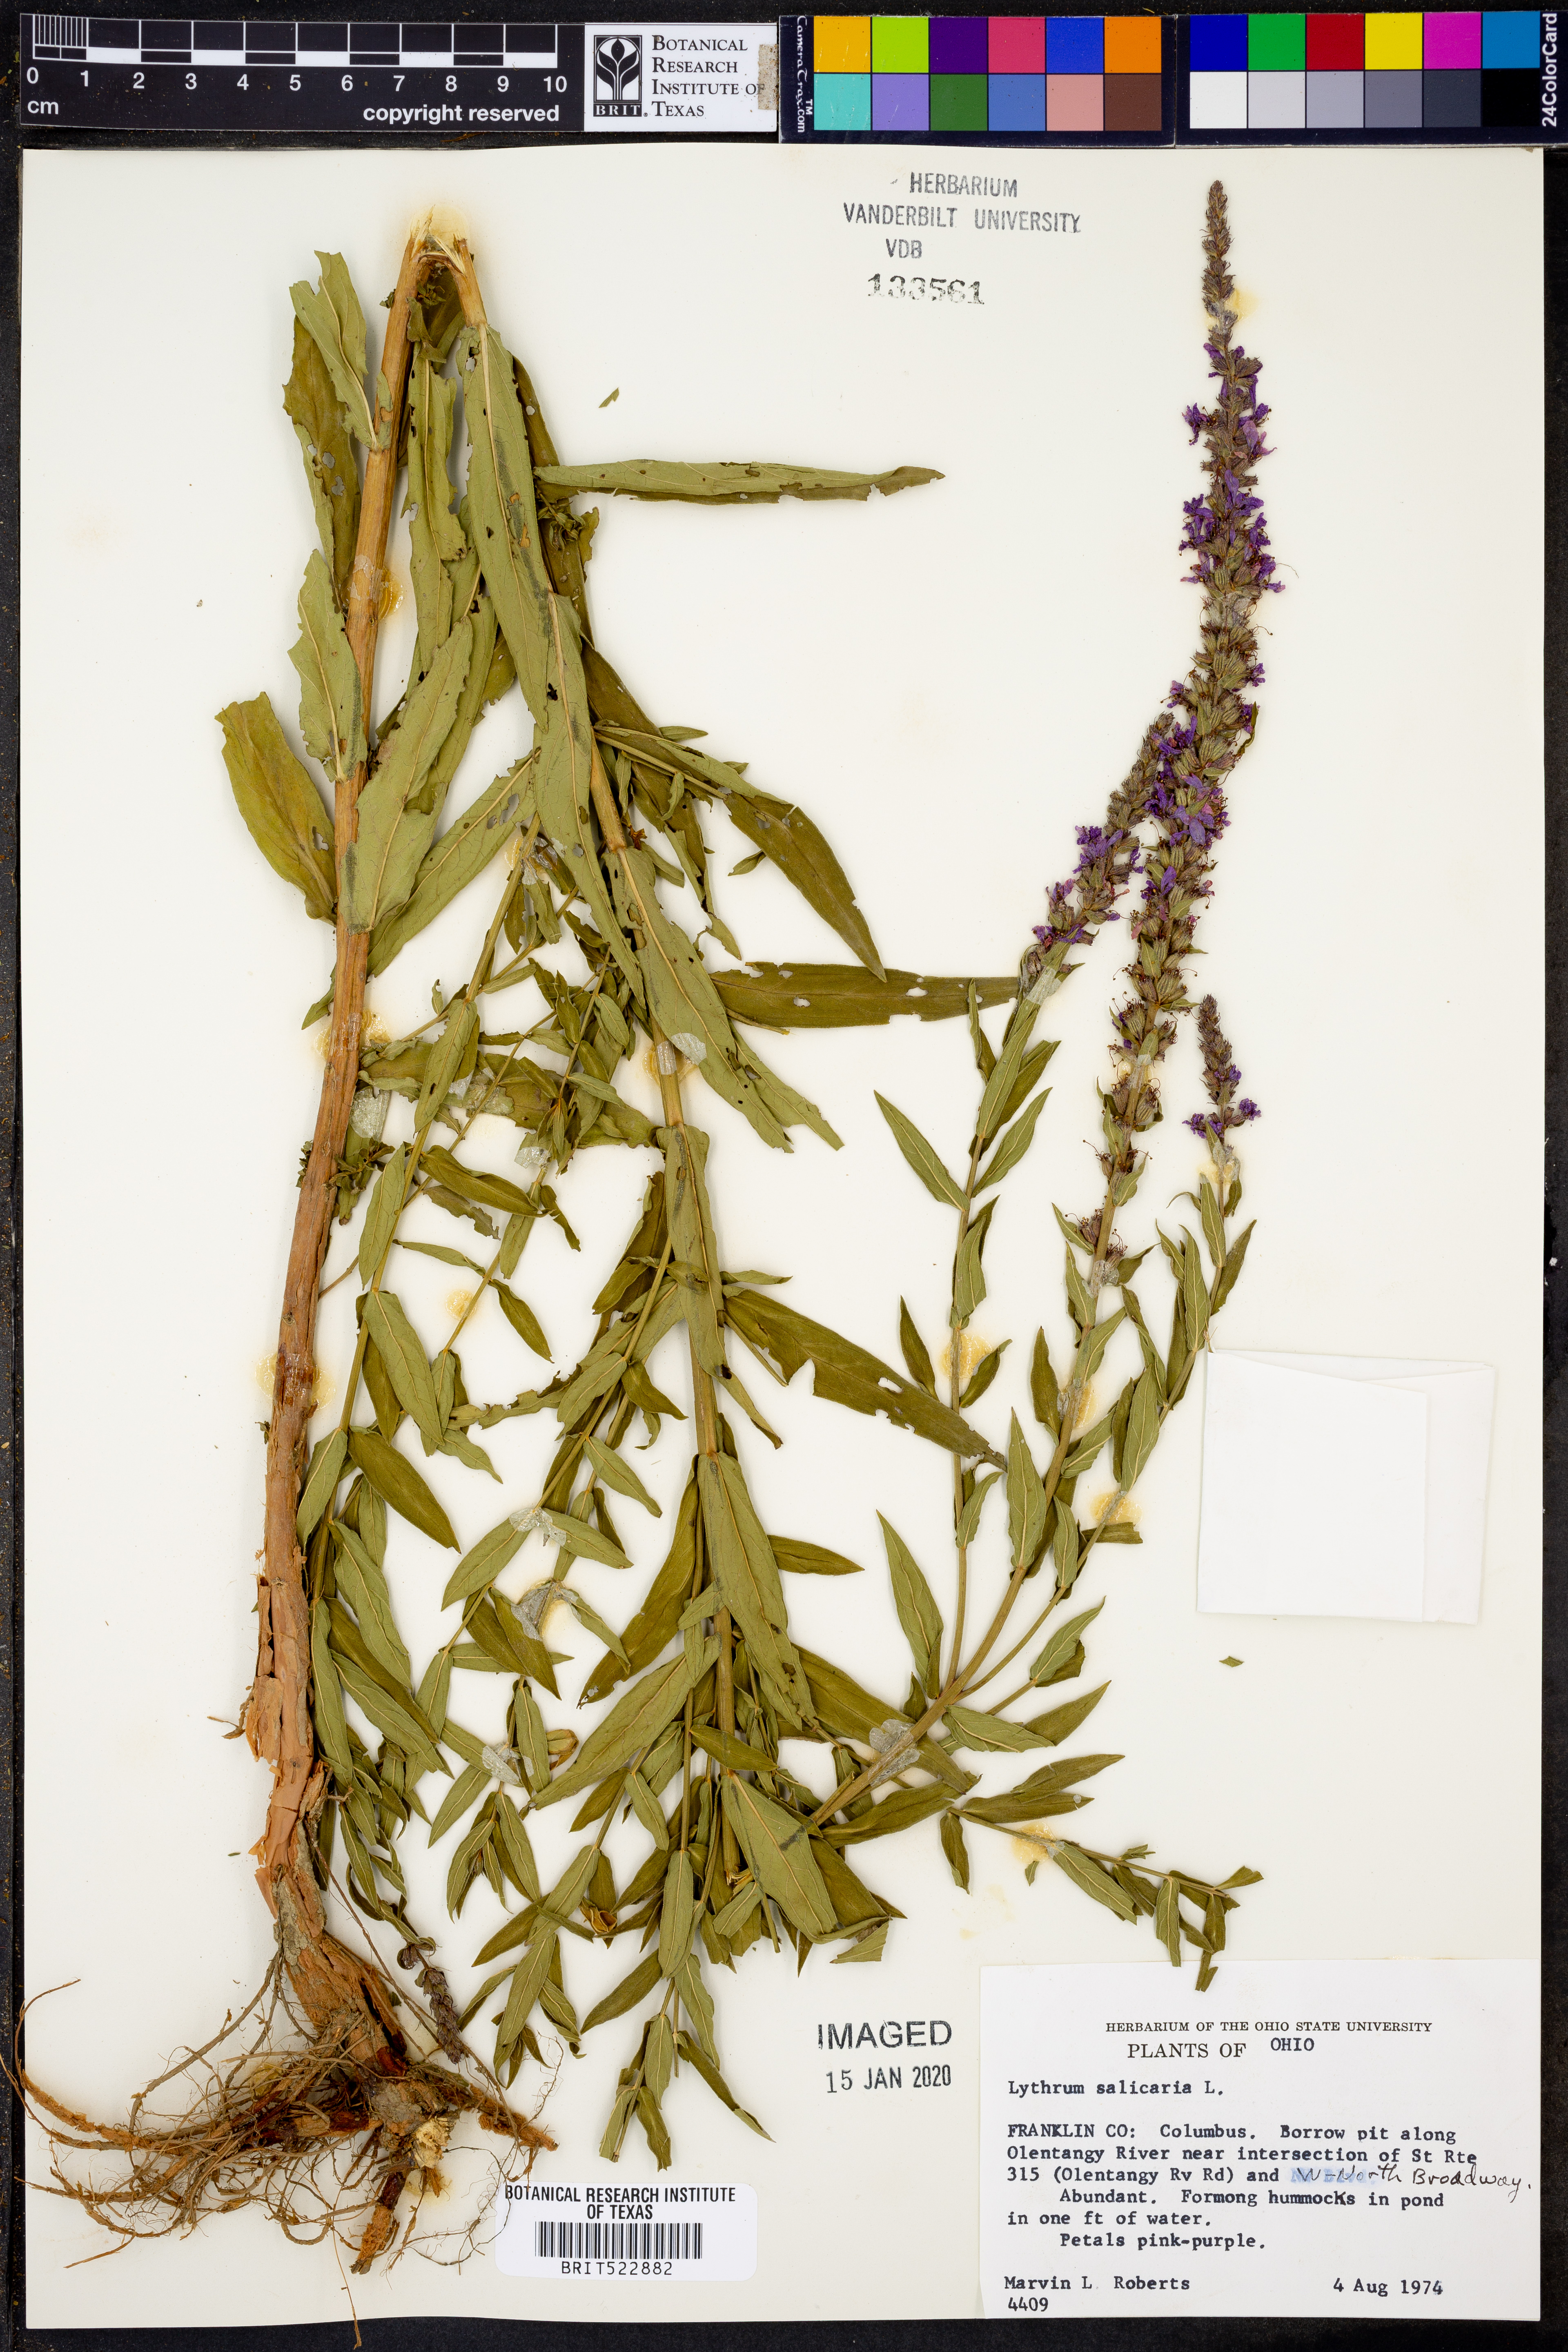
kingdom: Plantae
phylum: Tracheophyta
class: Magnoliopsida
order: Myrtales
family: Lythraceae
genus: Lythrum
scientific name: Lythrum salicaria
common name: Purple loosestrife
